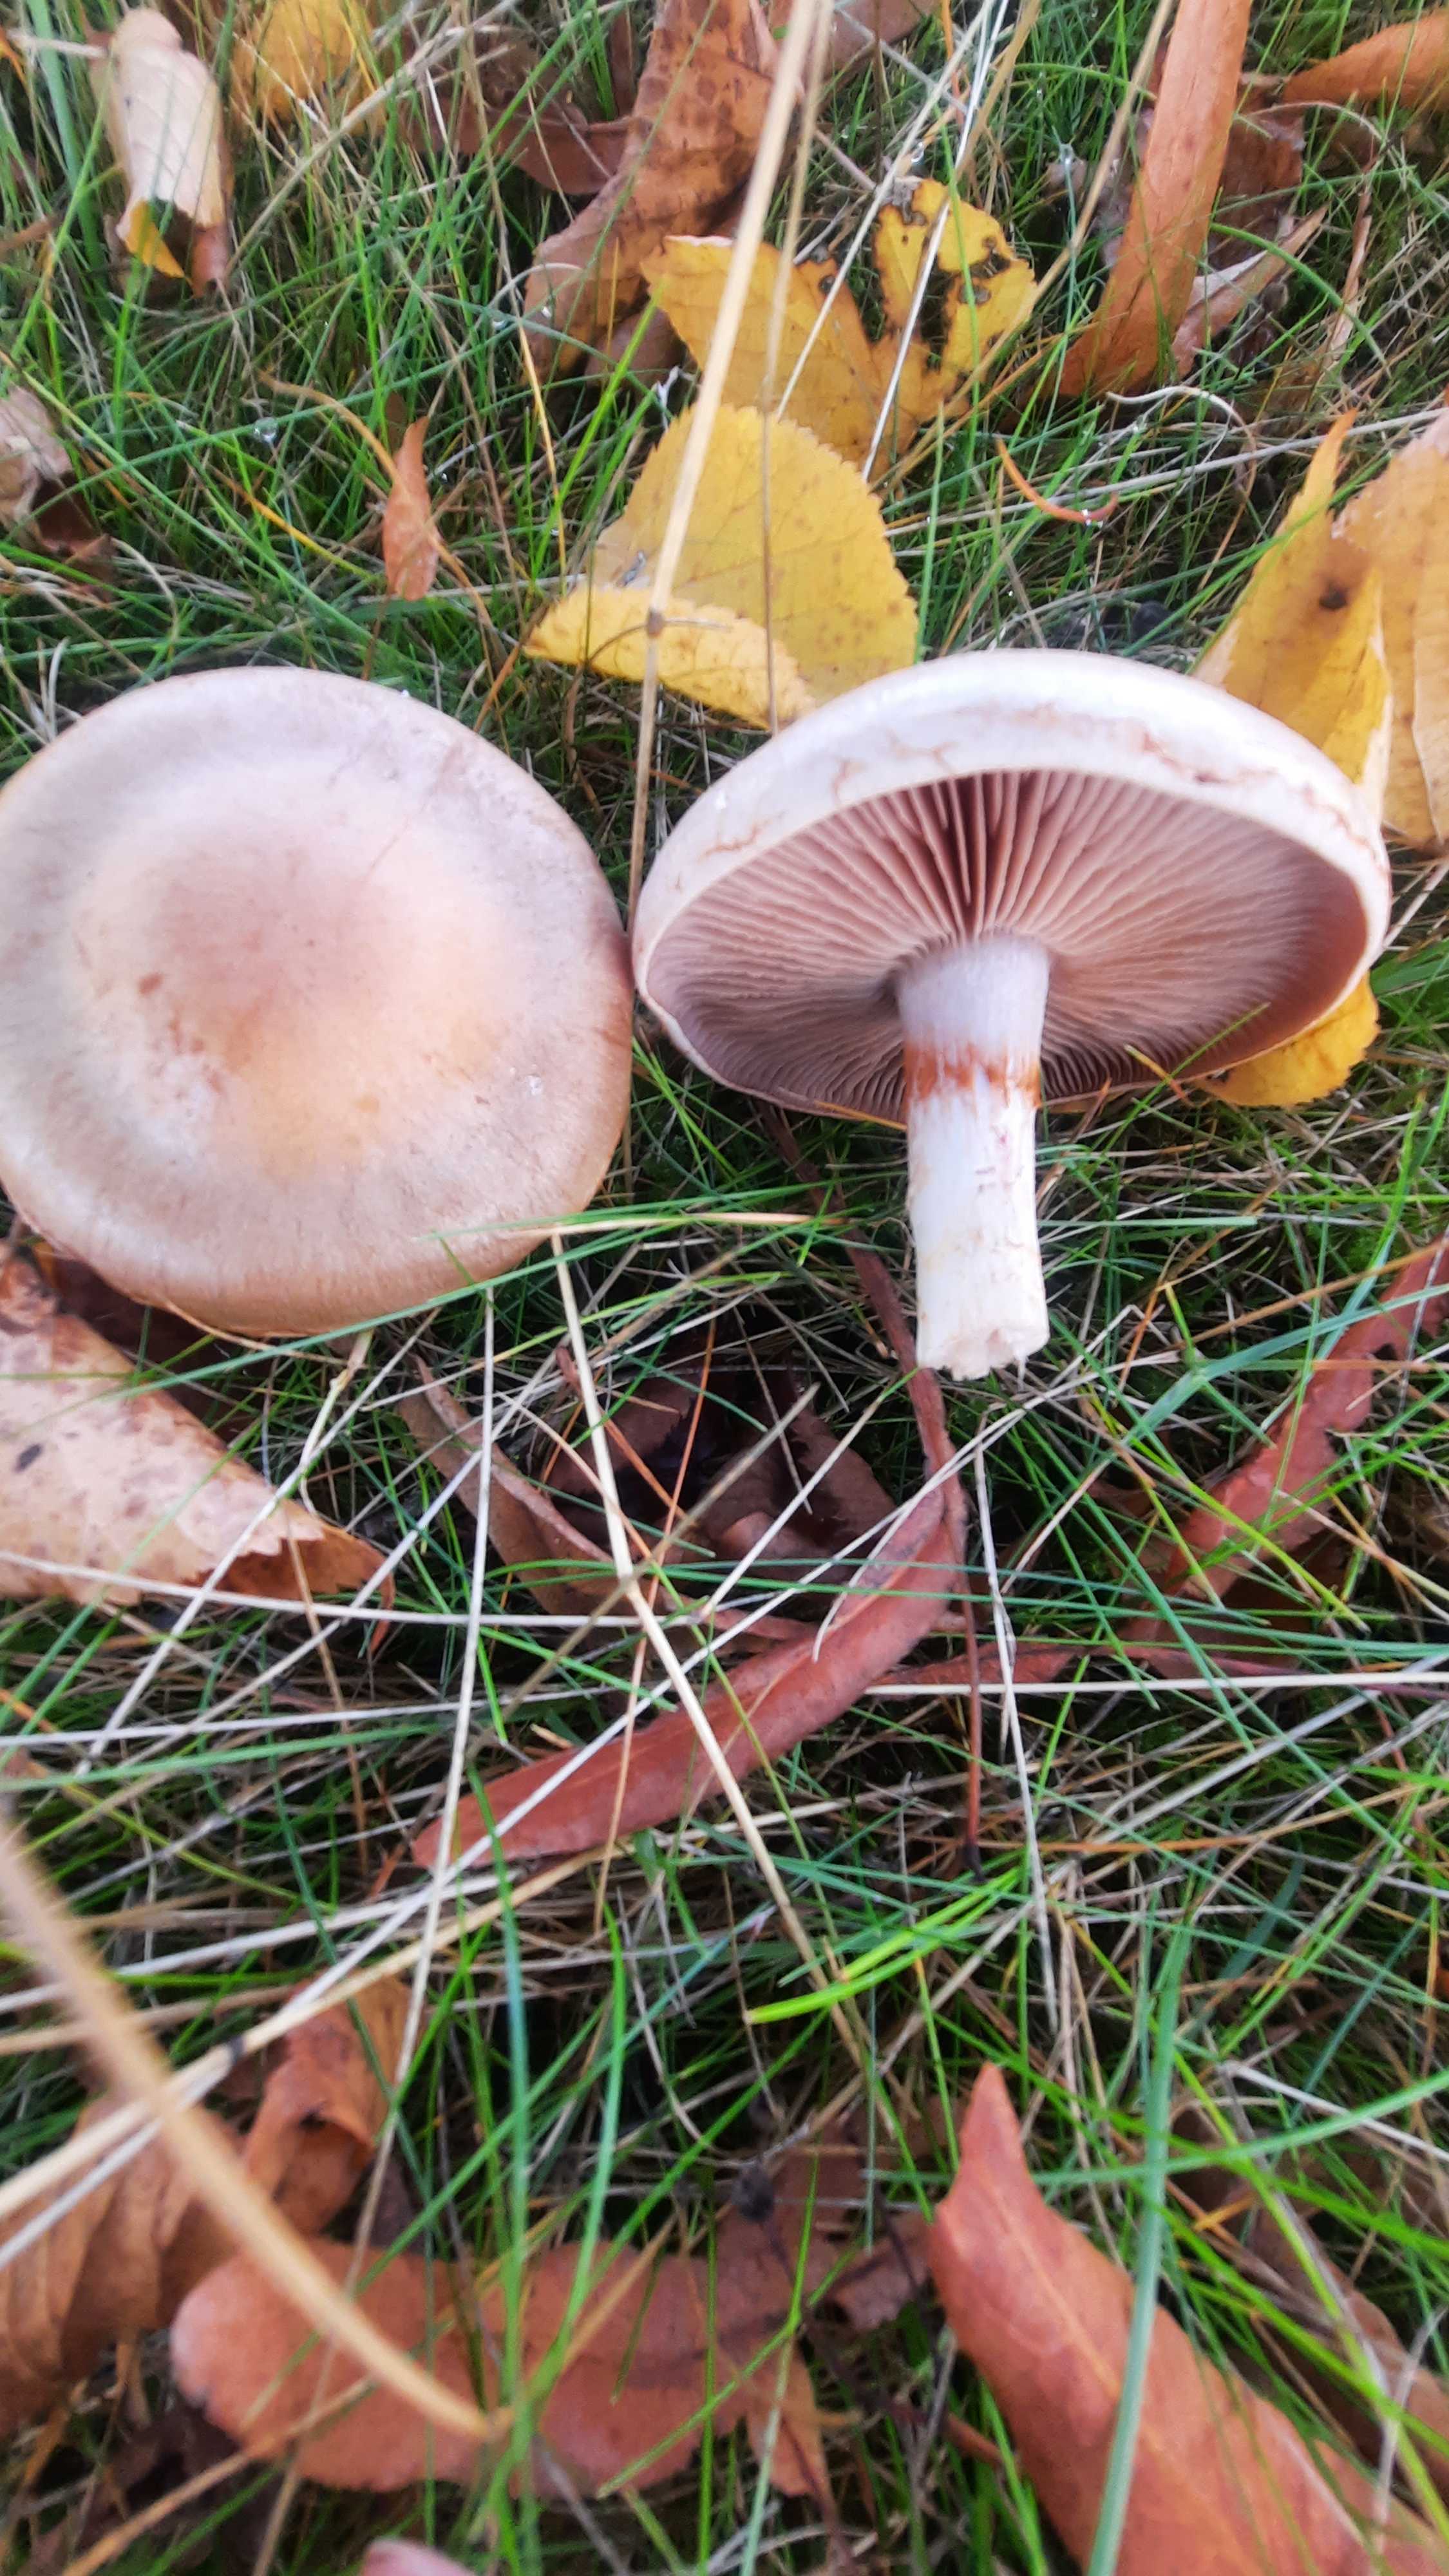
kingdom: Fungi
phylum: Basidiomycota
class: Agaricomycetes
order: Agaricales
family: Cortinariaceae
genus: Cortinarius
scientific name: Cortinarius
